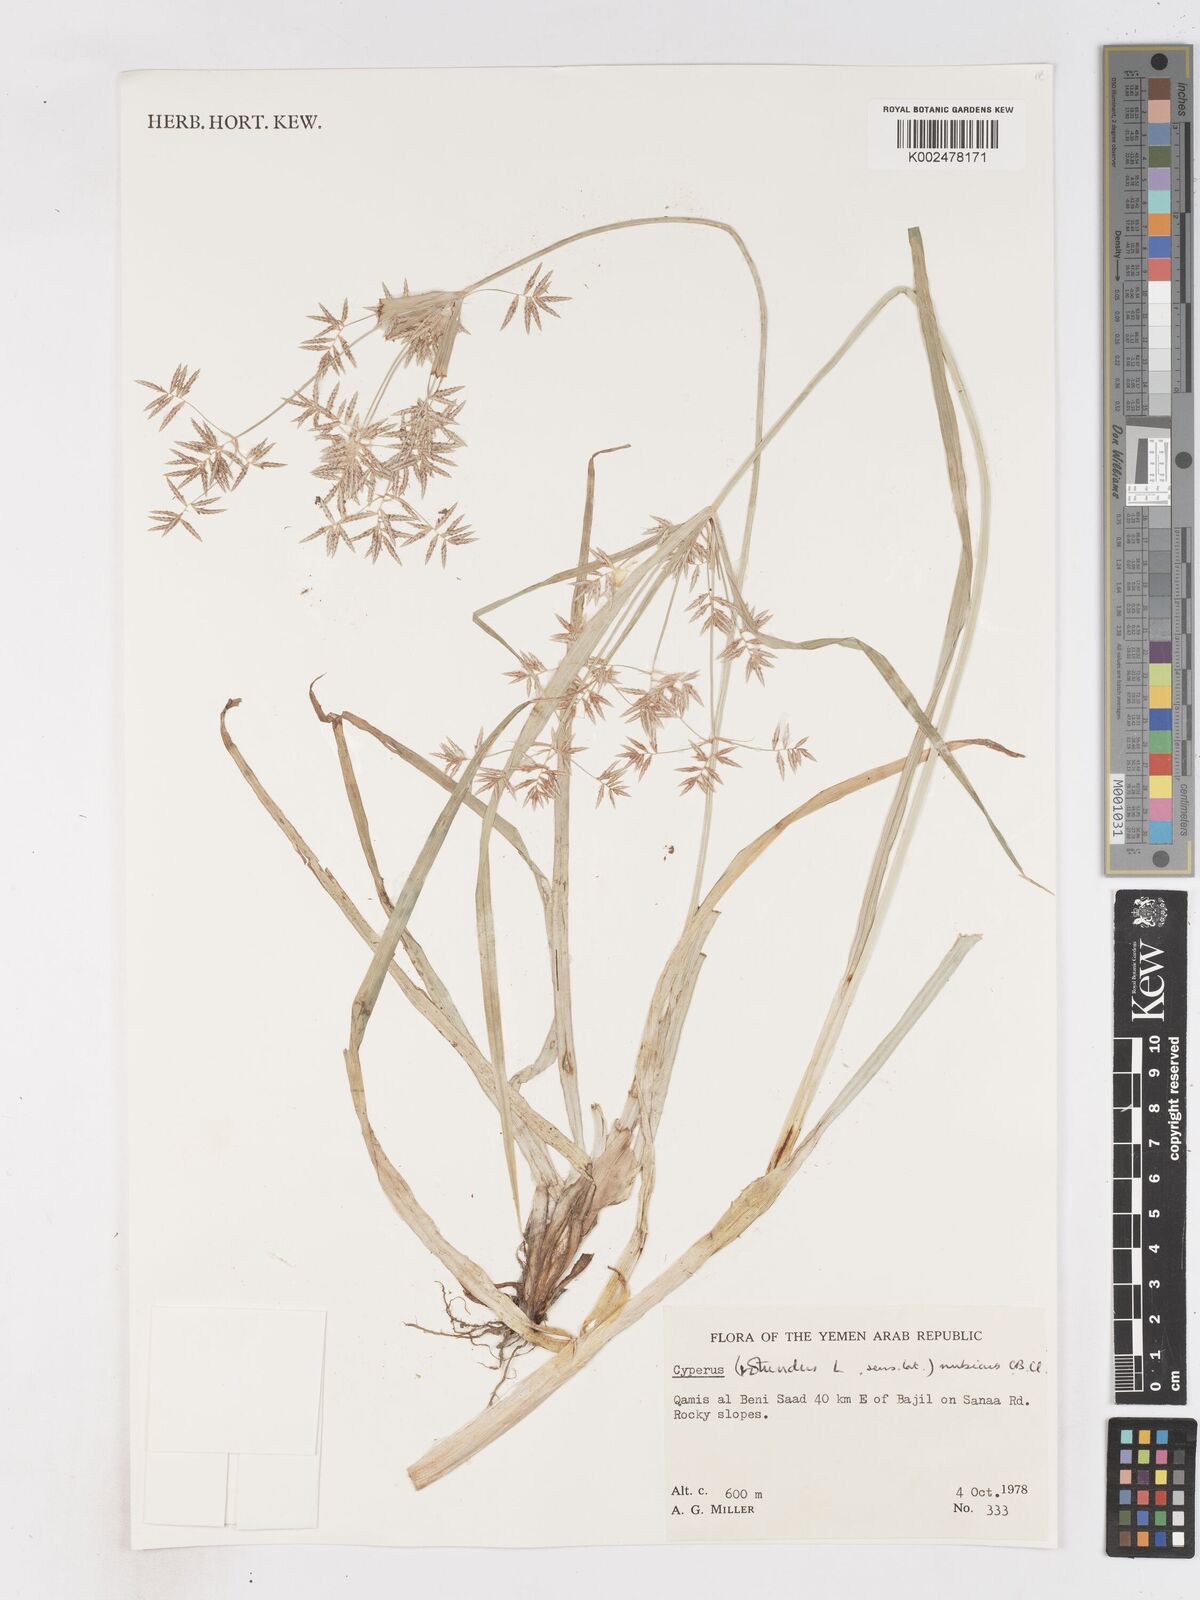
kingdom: Plantae
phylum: Tracheophyta
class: Liliopsida
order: Poales
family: Cyperaceae
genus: Cyperus
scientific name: Cyperus nubicus
